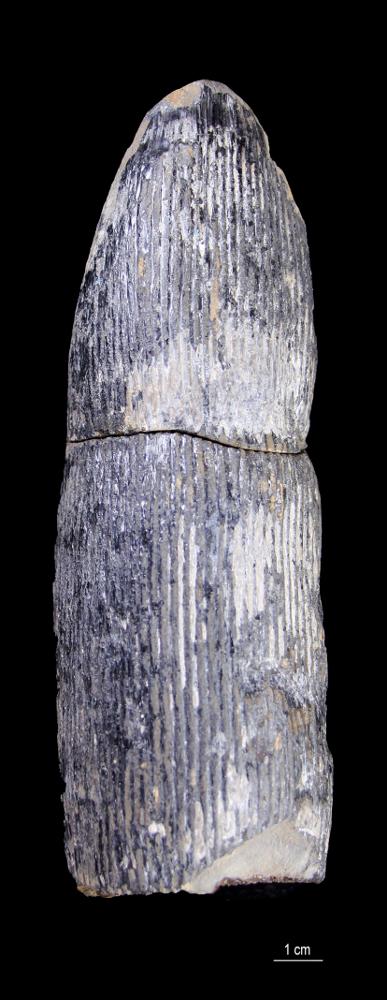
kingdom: Plantae
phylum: Tracheophyta
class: Polypodiopsida
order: Equisetales
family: Calamitaceae
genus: Calamites
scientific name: Calamites
